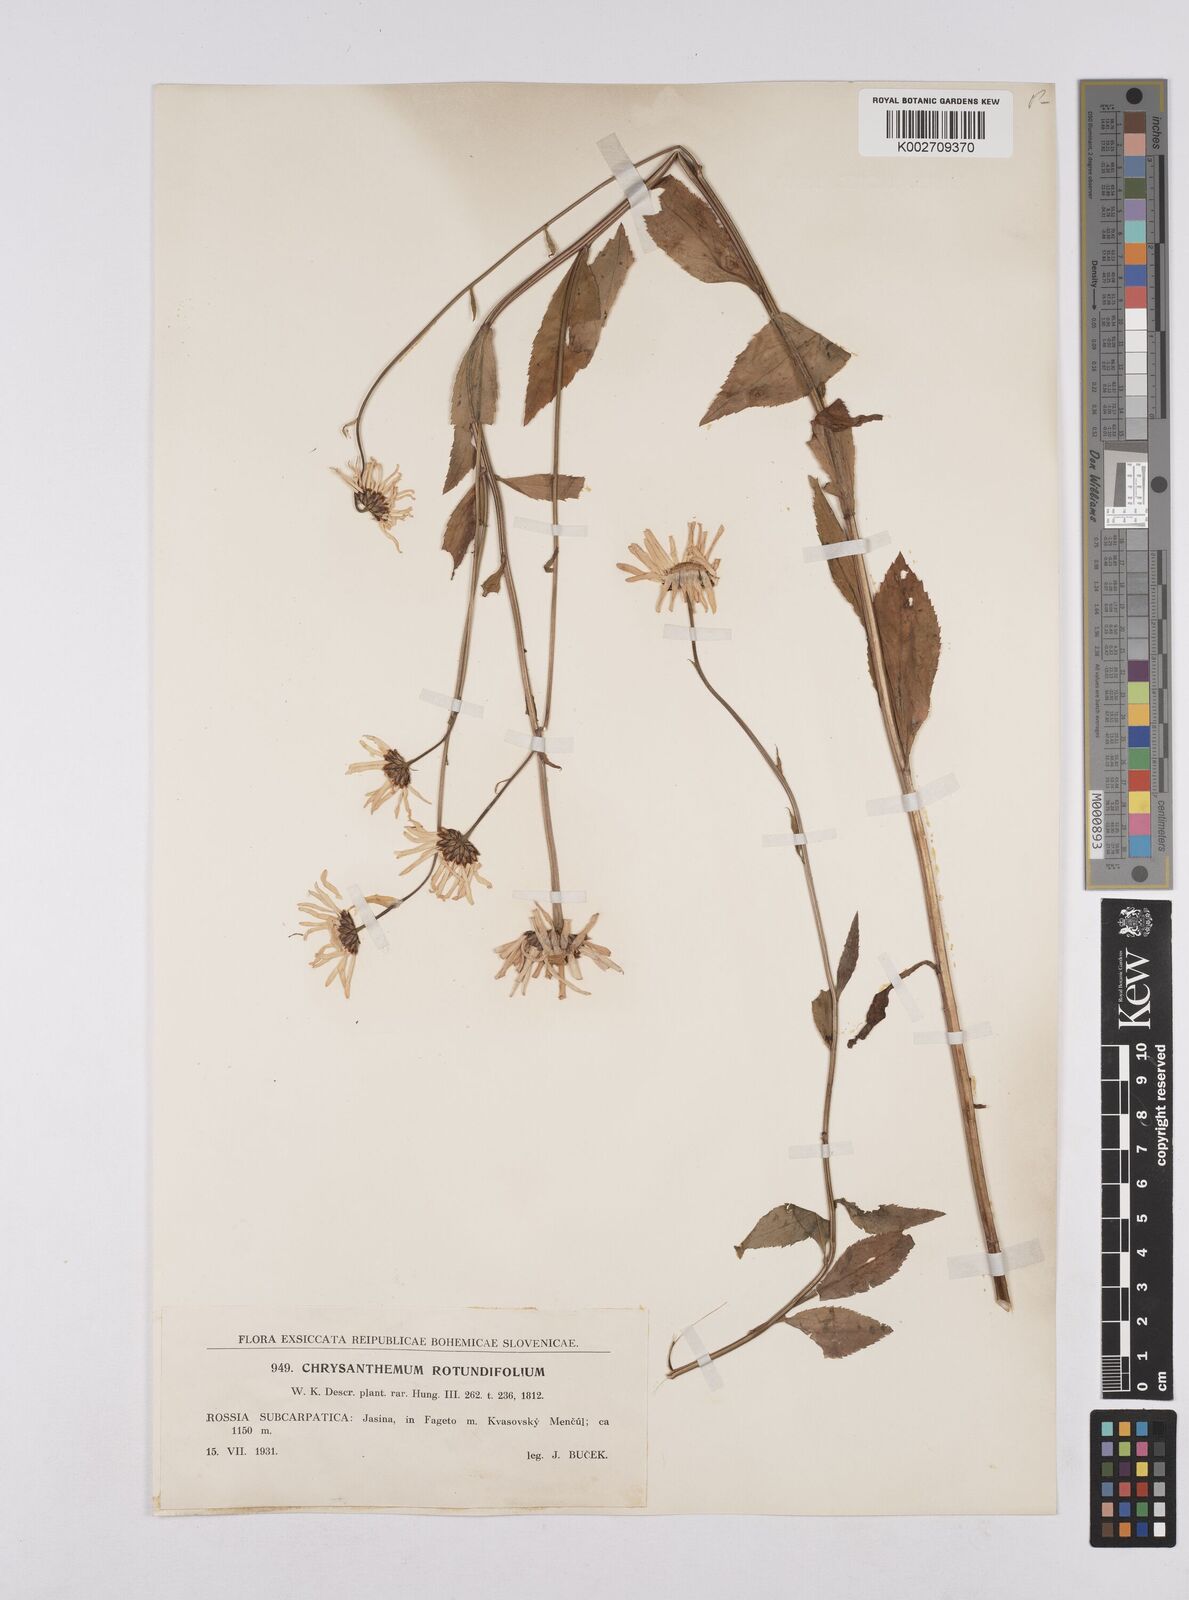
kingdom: Plantae
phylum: Tracheophyta
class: Magnoliopsida
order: Asterales
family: Asteraceae
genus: Leucanthemum
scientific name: Leucanthemum rotundifolium
